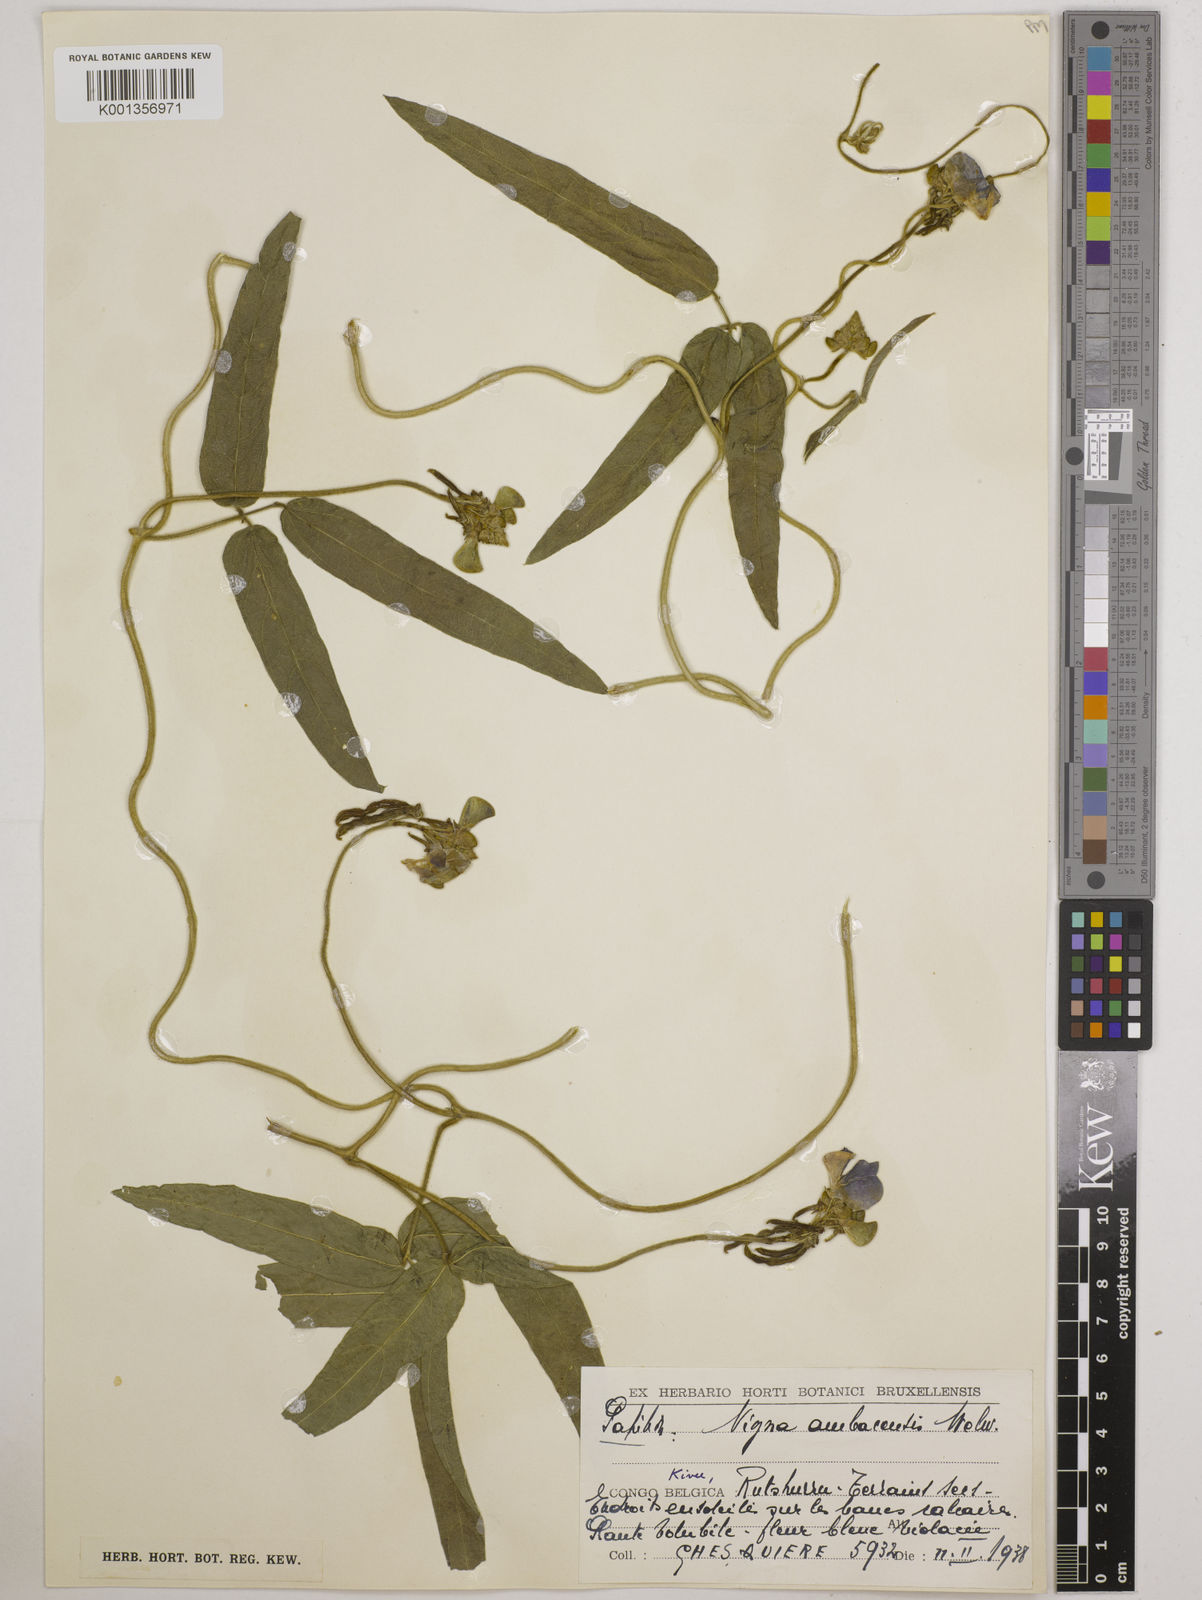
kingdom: Plantae
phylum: Tracheophyta
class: Magnoliopsida
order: Fabales
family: Fabaceae
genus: Vigna
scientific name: Vigna ambacensis
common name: Tsarkiyan zomo
